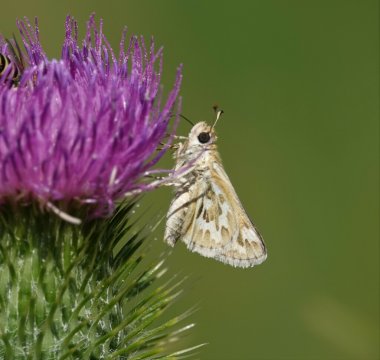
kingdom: Animalia
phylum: Arthropoda
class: Insecta
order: Lepidoptera
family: Hesperiidae
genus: Polites
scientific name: Polites sabuleti
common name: Sandhill Skipper
